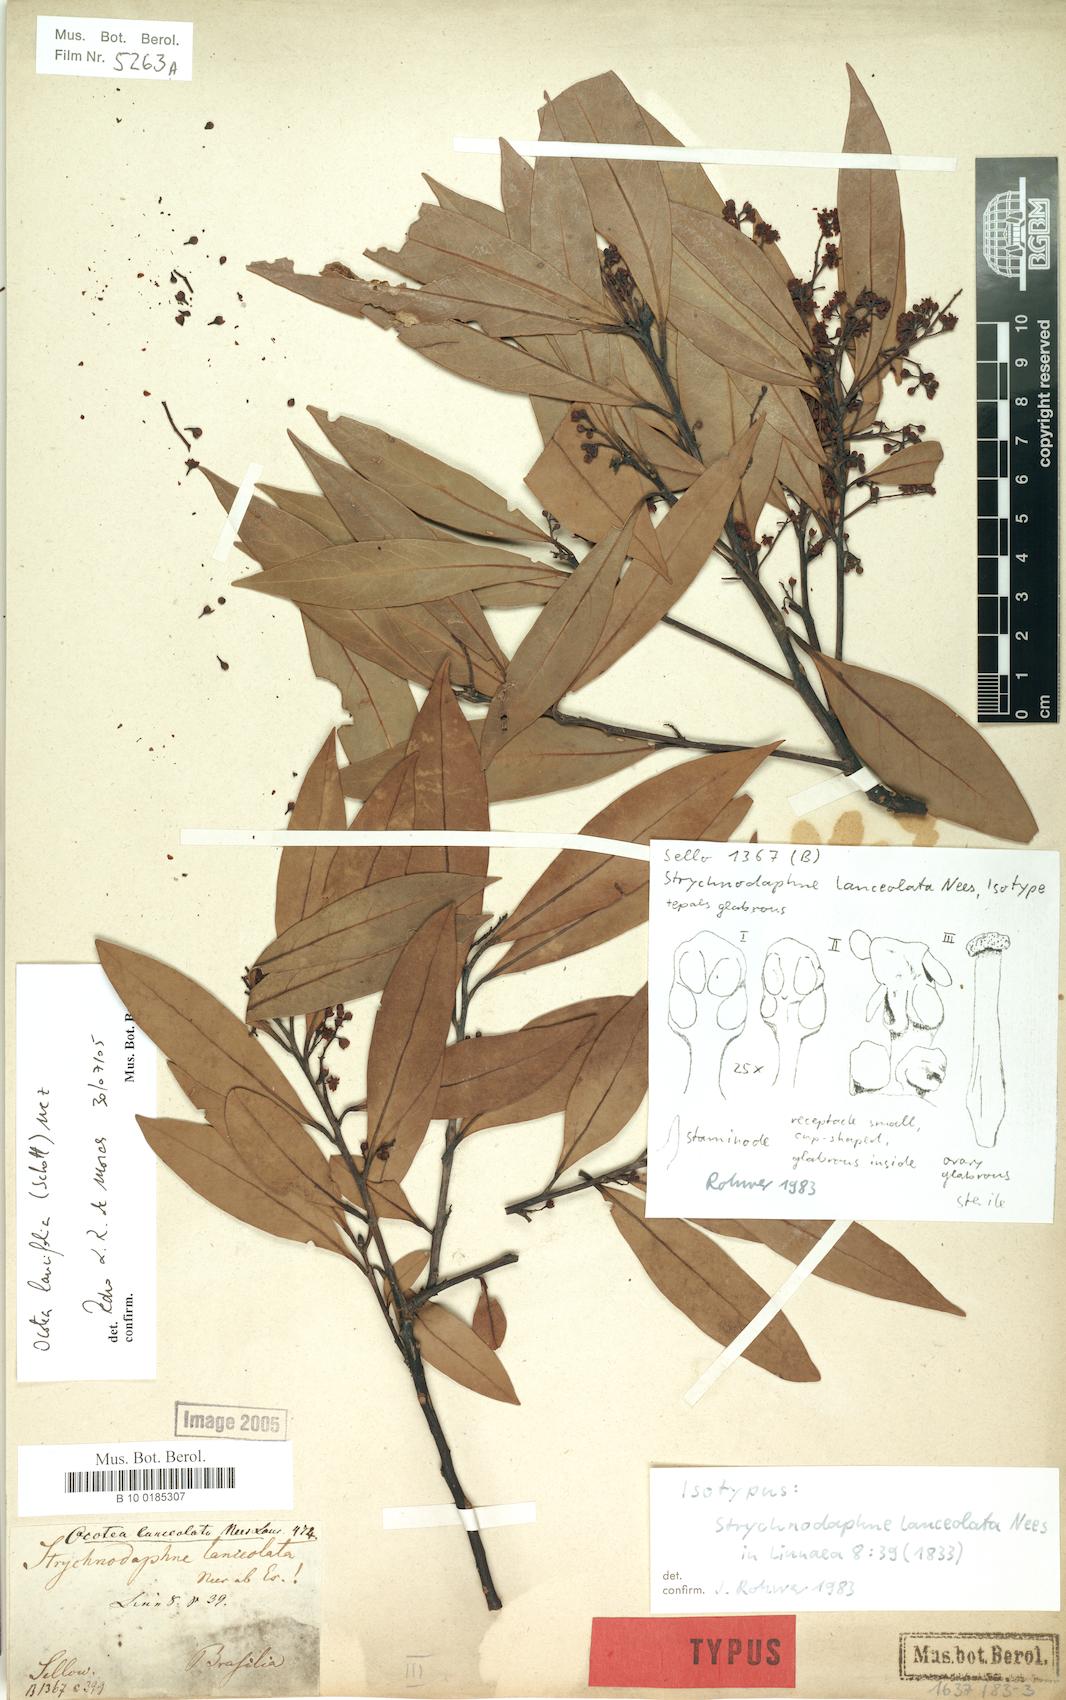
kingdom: Plantae
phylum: Tracheophyta
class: Magnoliopsida
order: Laurales
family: Lauraceae
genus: Ocotea
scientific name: Ocotea lancifolia
